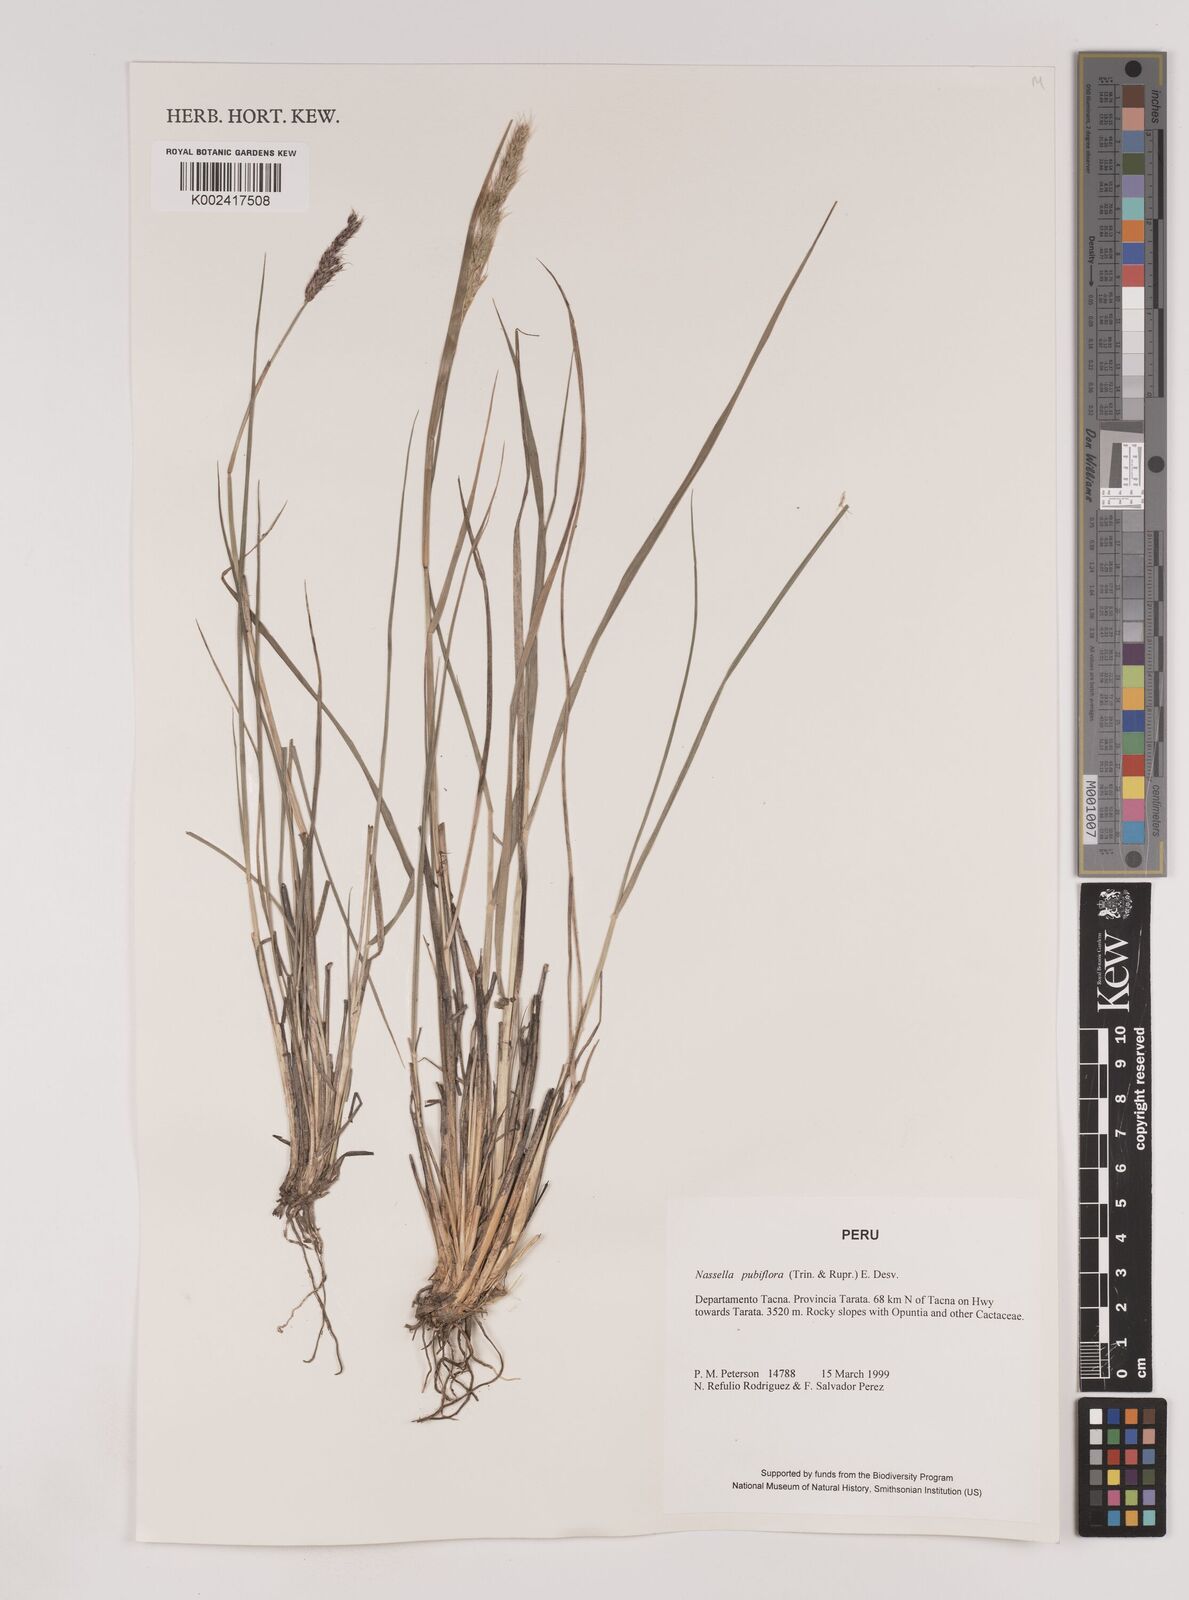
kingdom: Plantae
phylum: Tracheophyta
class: Liliopsida
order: Poales
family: Poaceae
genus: Nassella
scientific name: Nassella pubiflora
